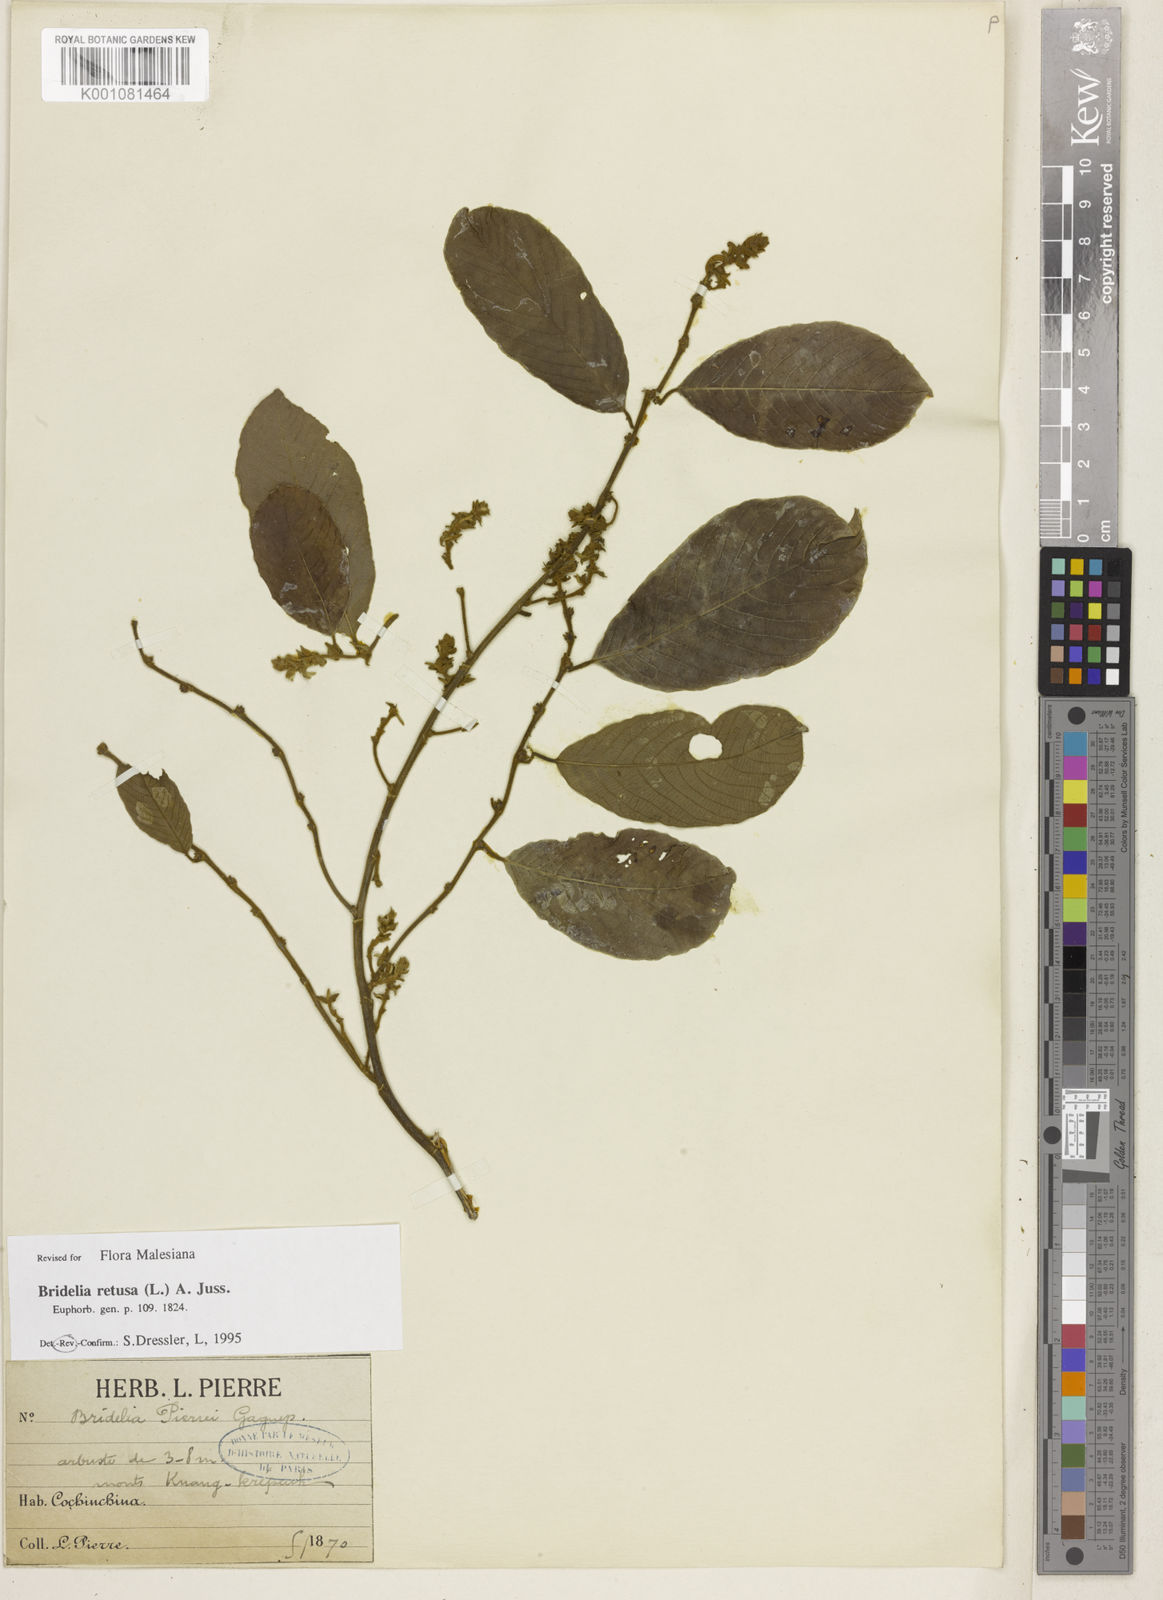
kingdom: Plantae
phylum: Tracheophyta
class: Magnoliopsida
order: Malpighiales
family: Phyllanthaceae
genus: Bridelia
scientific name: Bridelia retusa
